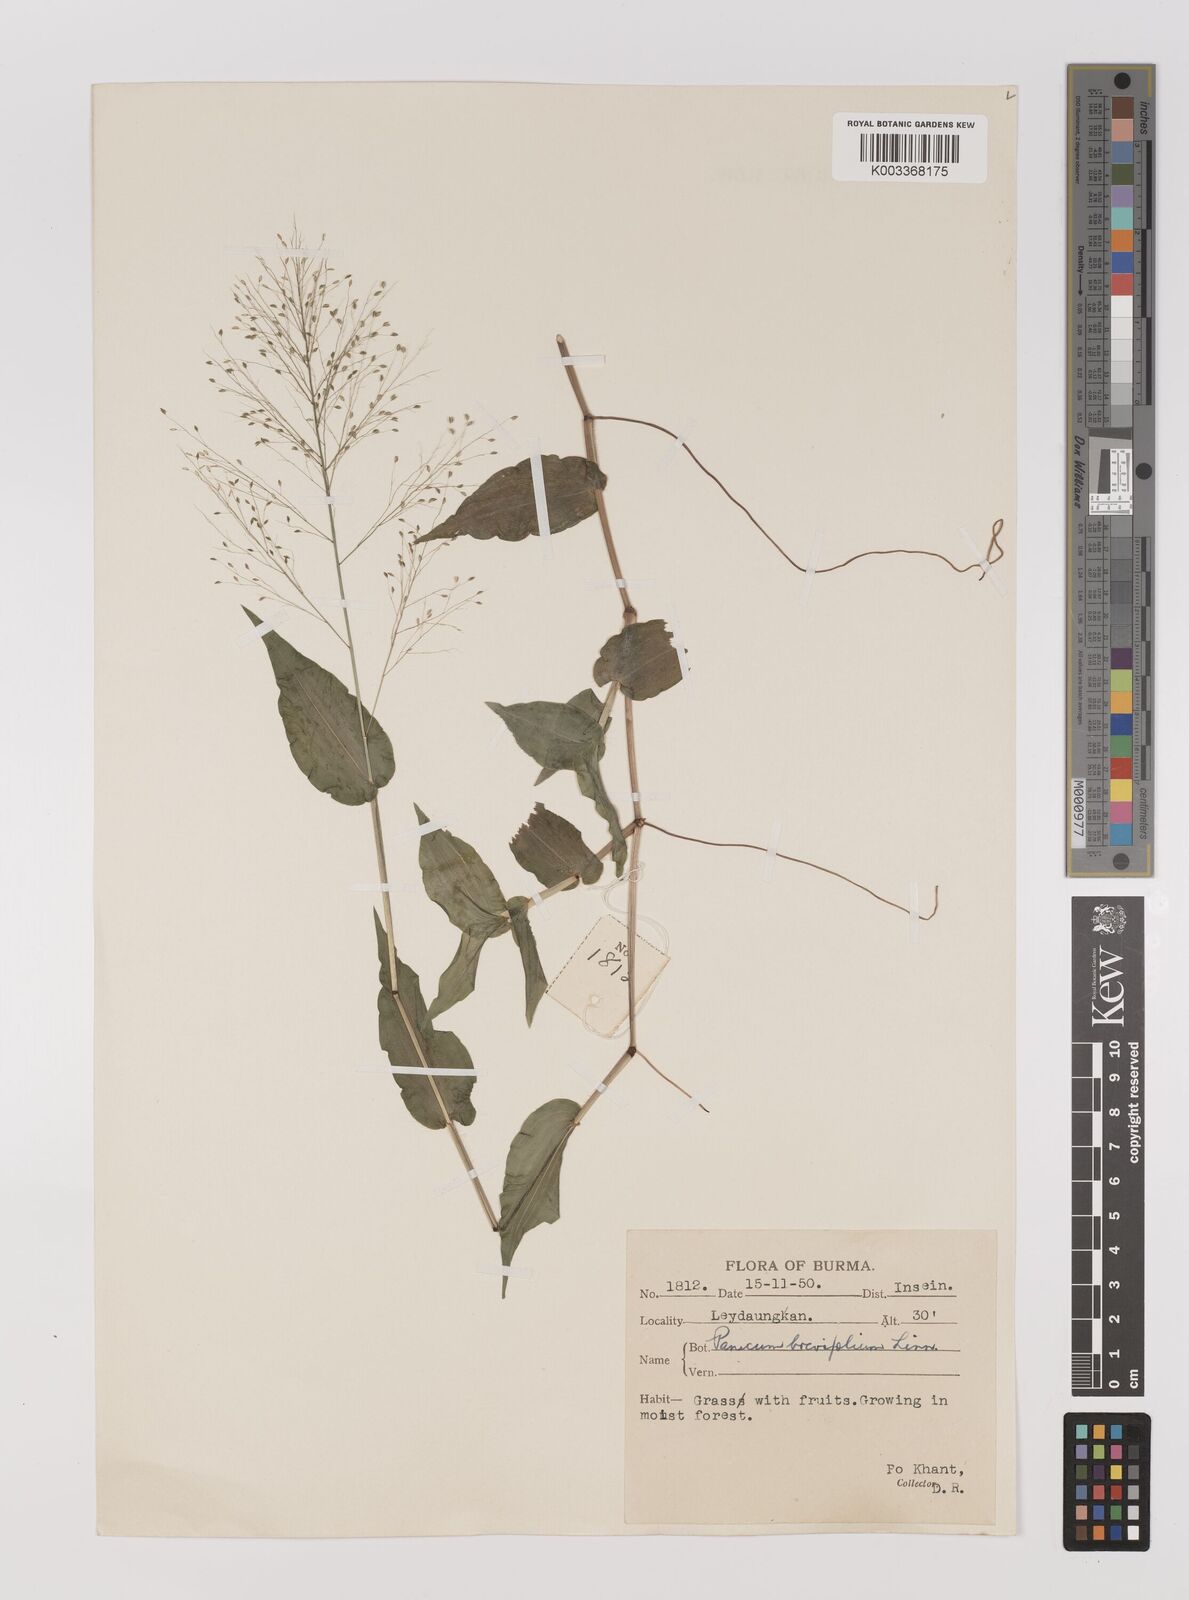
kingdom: Plantae
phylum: Tracheophyta
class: Liliopsida
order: Poales
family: Poaceae
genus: Panicum
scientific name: Panicum brevifolium
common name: Shortleaf panic grass
